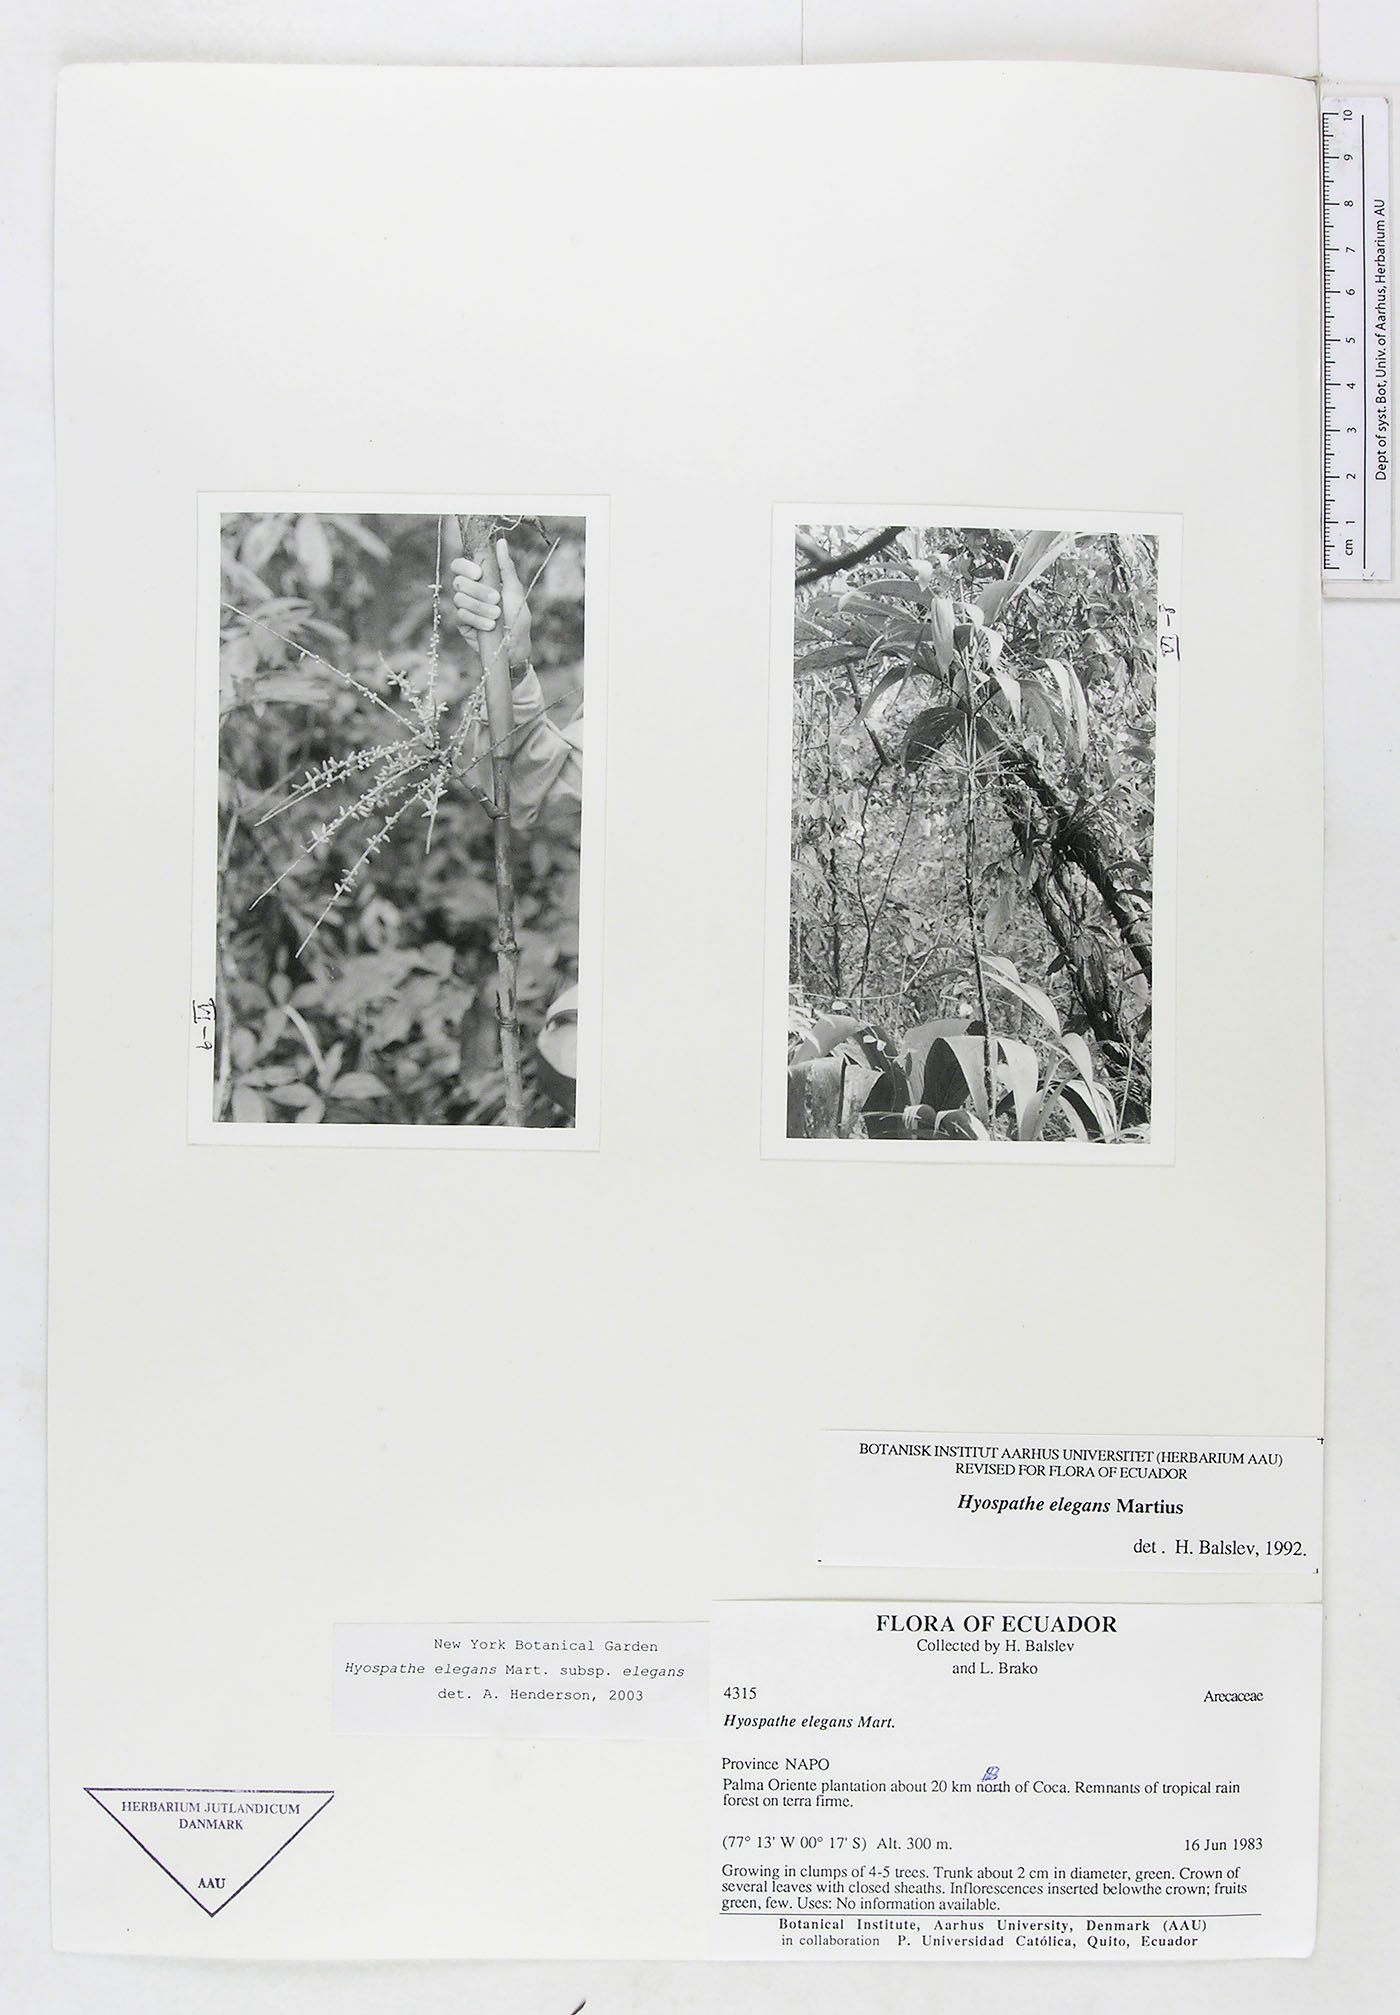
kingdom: Plantae
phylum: Tracheophyta
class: Liliopsida
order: Arecales
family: Arecaceae
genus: Hyospathe
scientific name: Hyospathe elegans
